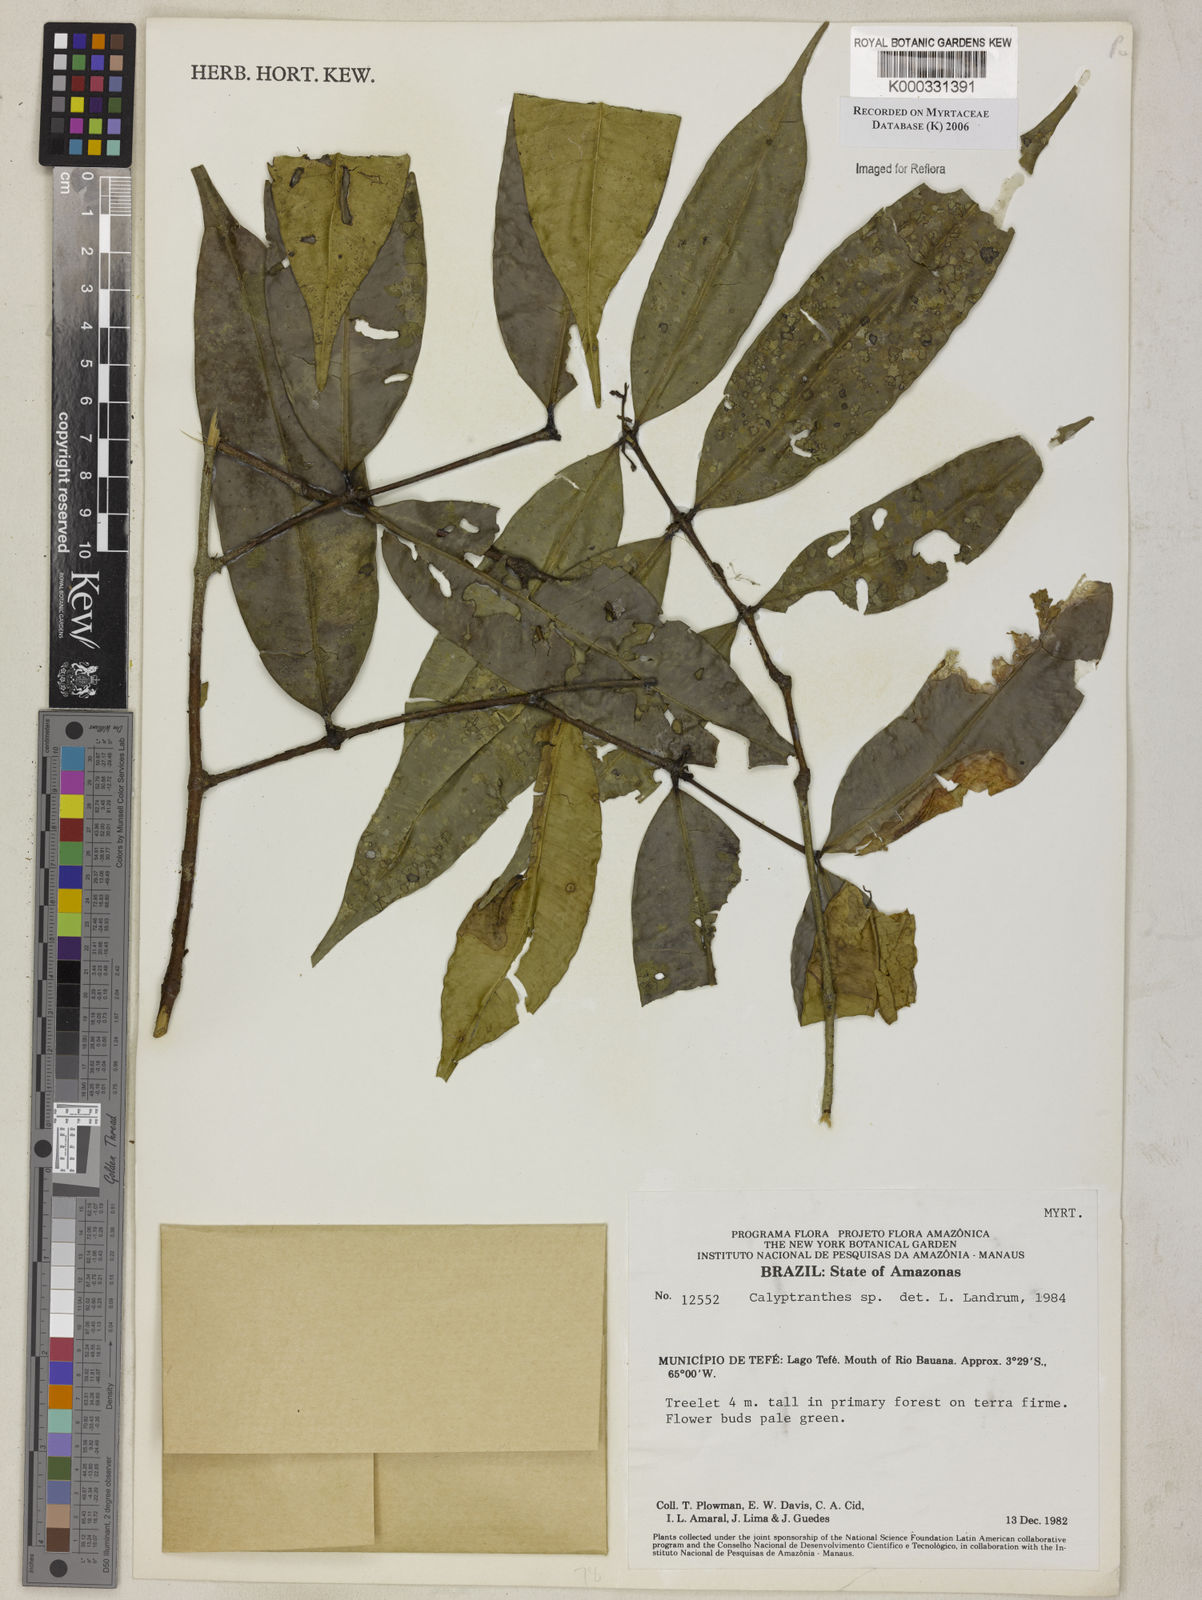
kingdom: Plantae
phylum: Tracheophyta
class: Magnoliopsida
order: Myrtales
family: Myrtaceae
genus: Calyptranthes
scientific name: Calyptranthes
